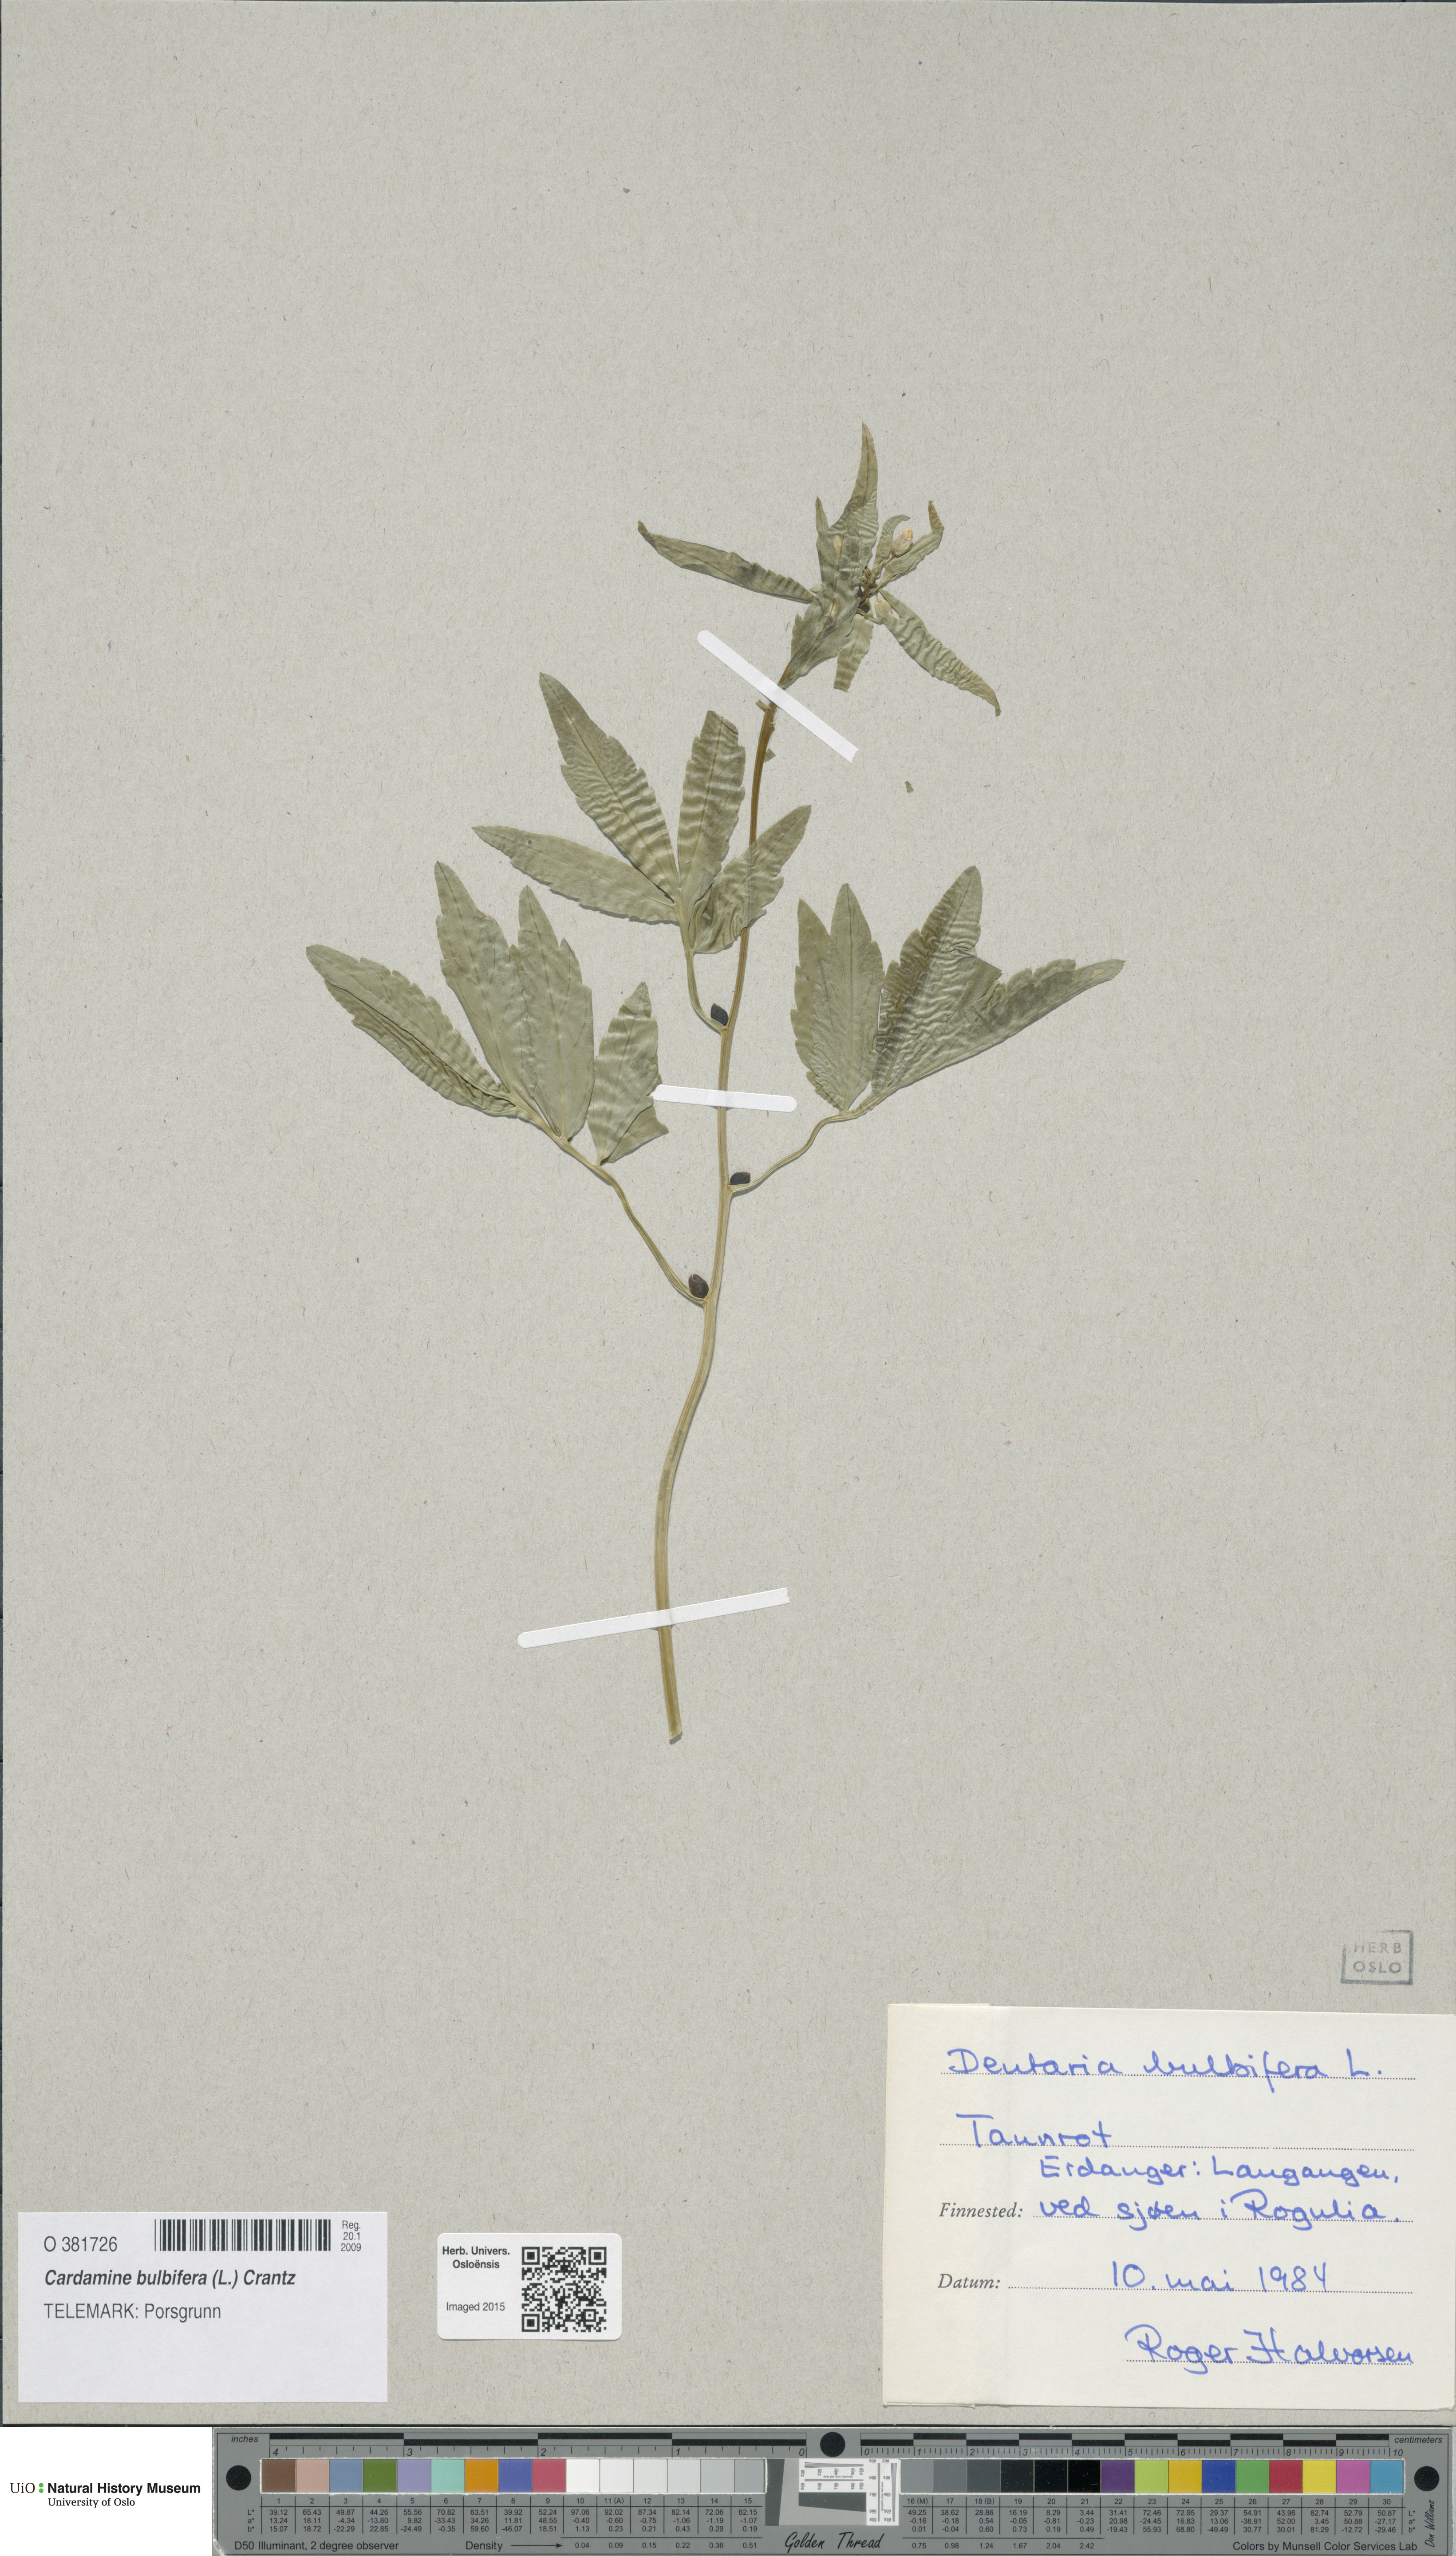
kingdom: Plantae
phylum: Tracheophyta
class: Magnoliopsida
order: Brassicales
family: Brassicaceae
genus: Cardamine
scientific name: Cardamine bulbifera
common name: Coralroot bittercress
